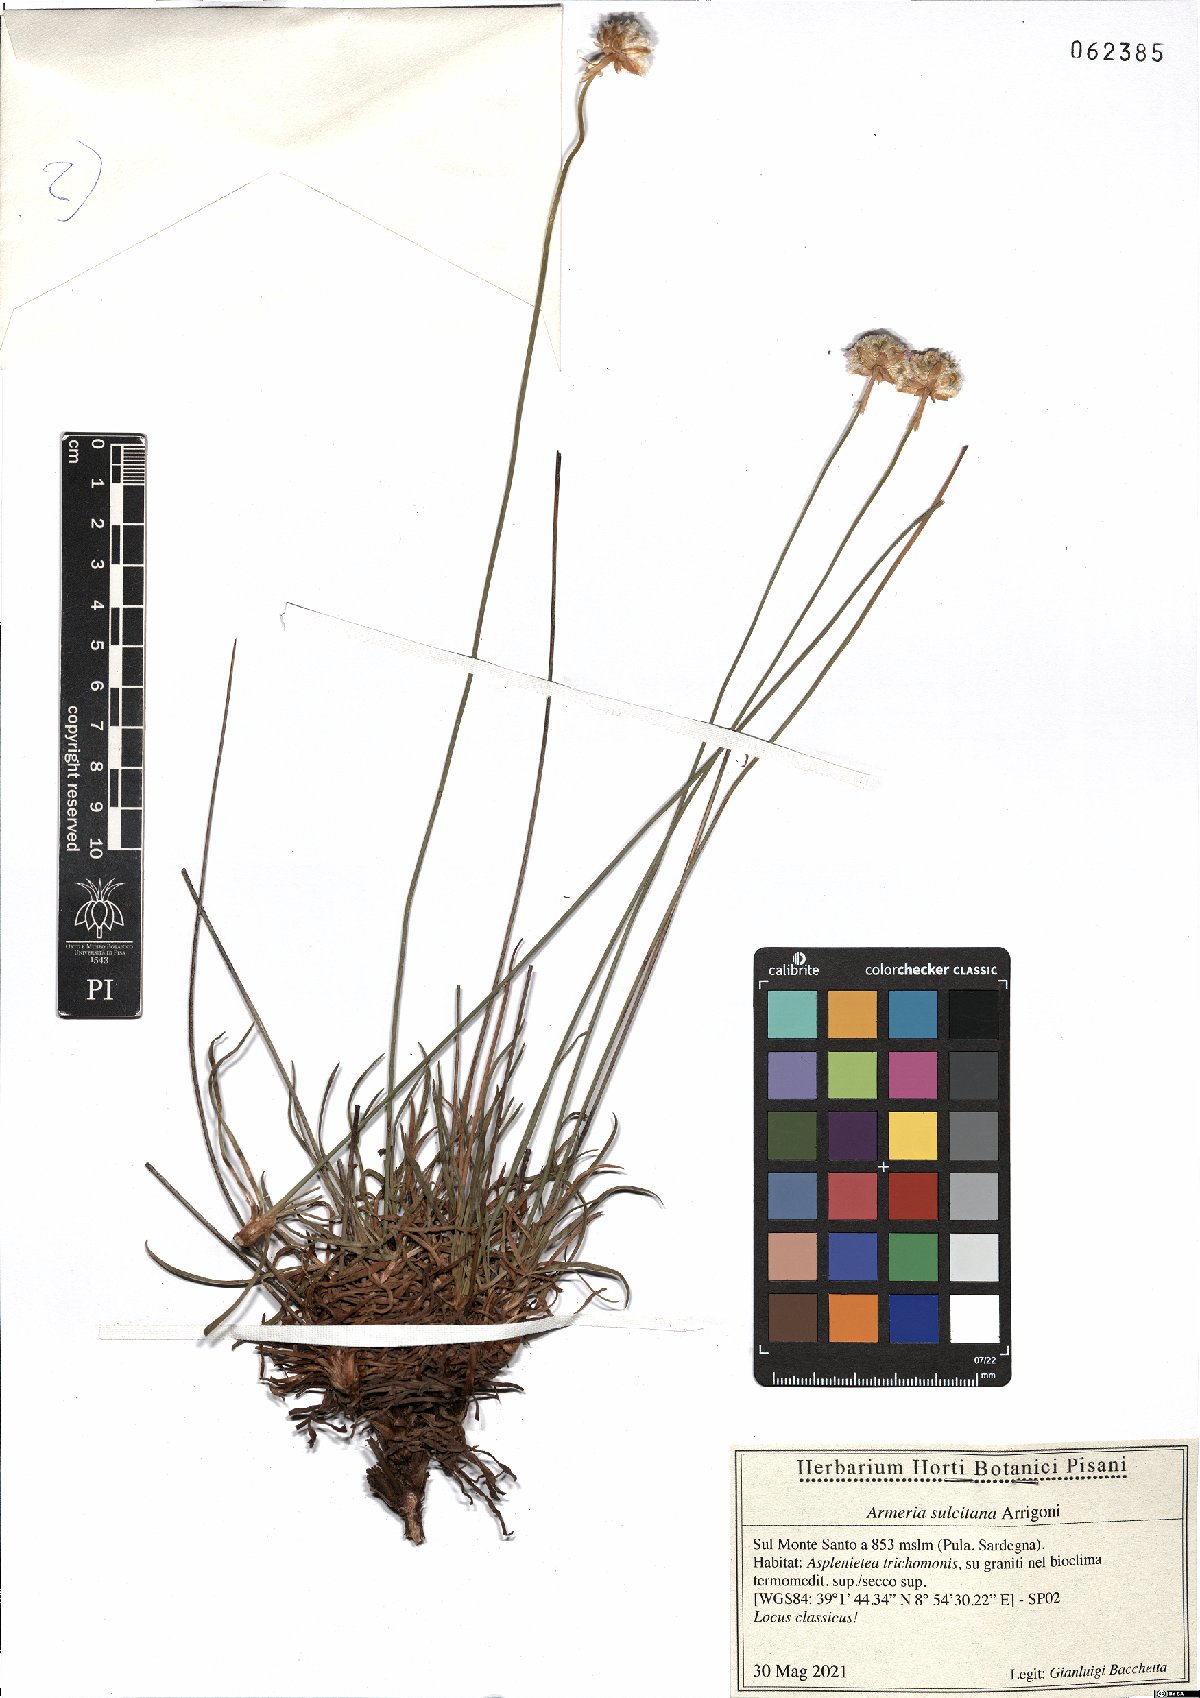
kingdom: Plantae
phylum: Tracheophyta
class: Magnoliopsida
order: Caryophyllales
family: Plumbaginaceae
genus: Armeria
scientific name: Armeria sulcitana
